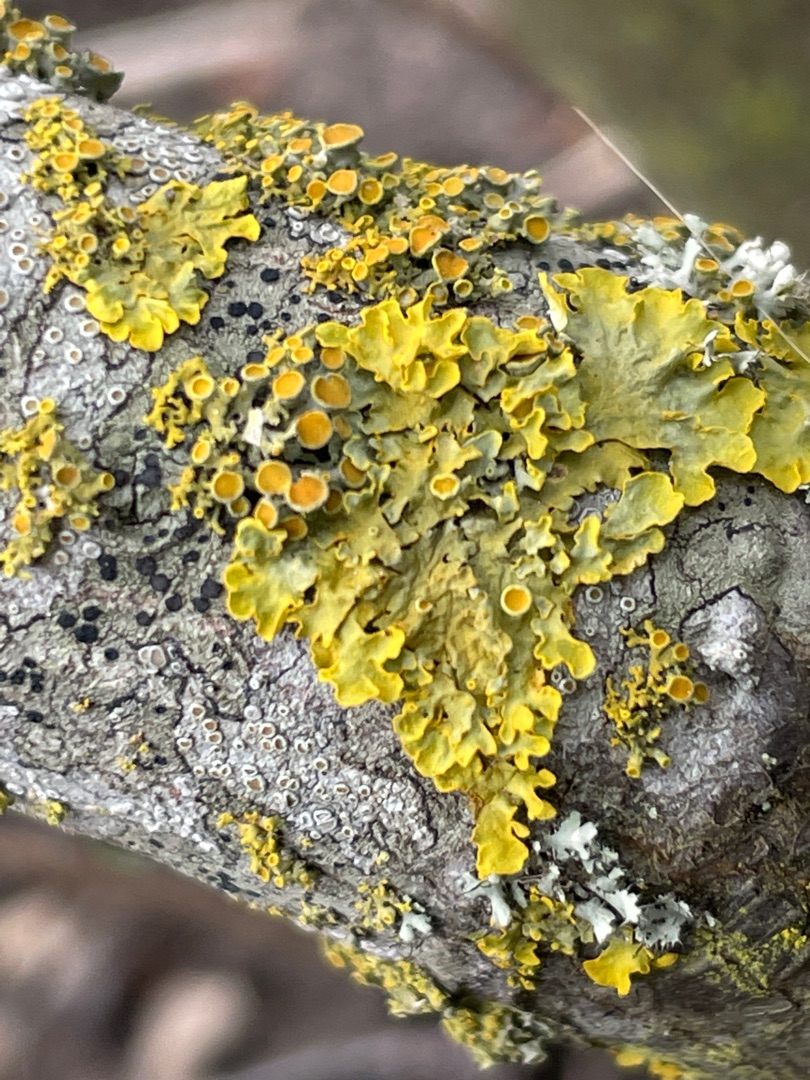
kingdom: Fungi
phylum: Ascomycota
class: Lecanoromycetes
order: Teloschistales
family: Teloschistaceae
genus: Xanthoria
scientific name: Xanthoria parietina
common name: Almindelig væggelav
